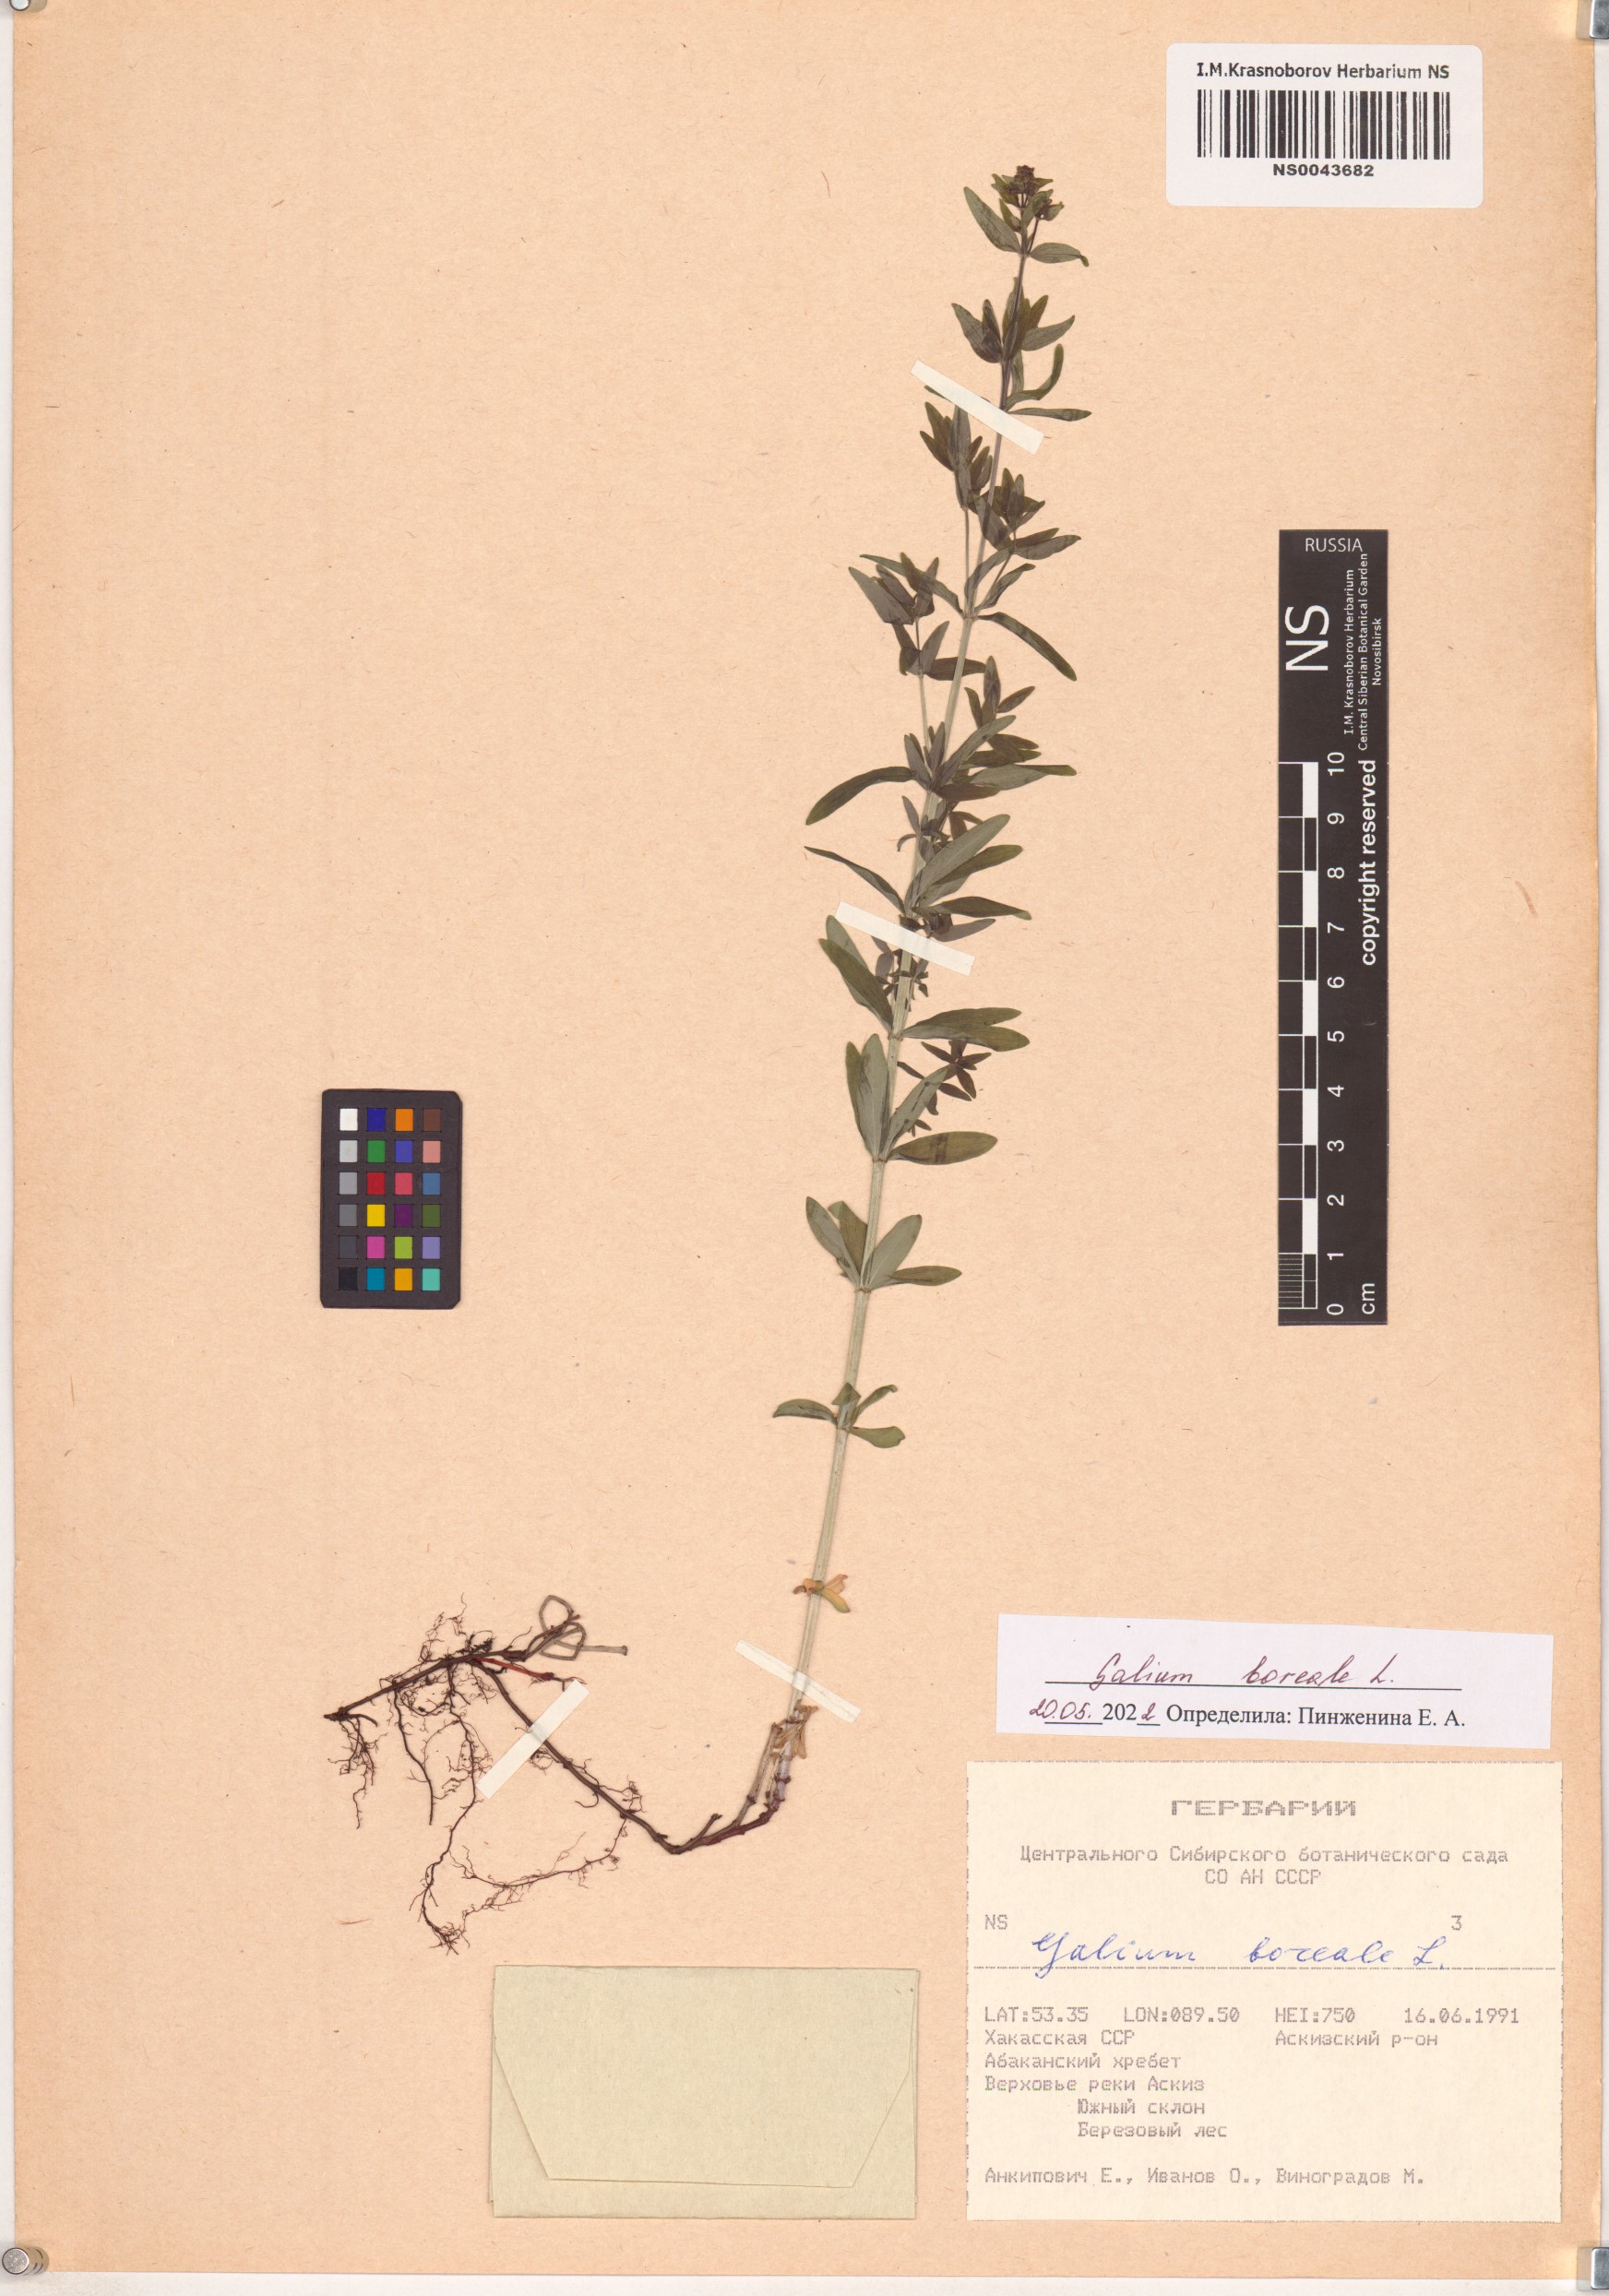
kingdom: Plantae
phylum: Tracheophyta
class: Magnoliopsida
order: Gentianales
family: Rubiaceae
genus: Galium
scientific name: Galium boreale
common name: Northern bedstraw
